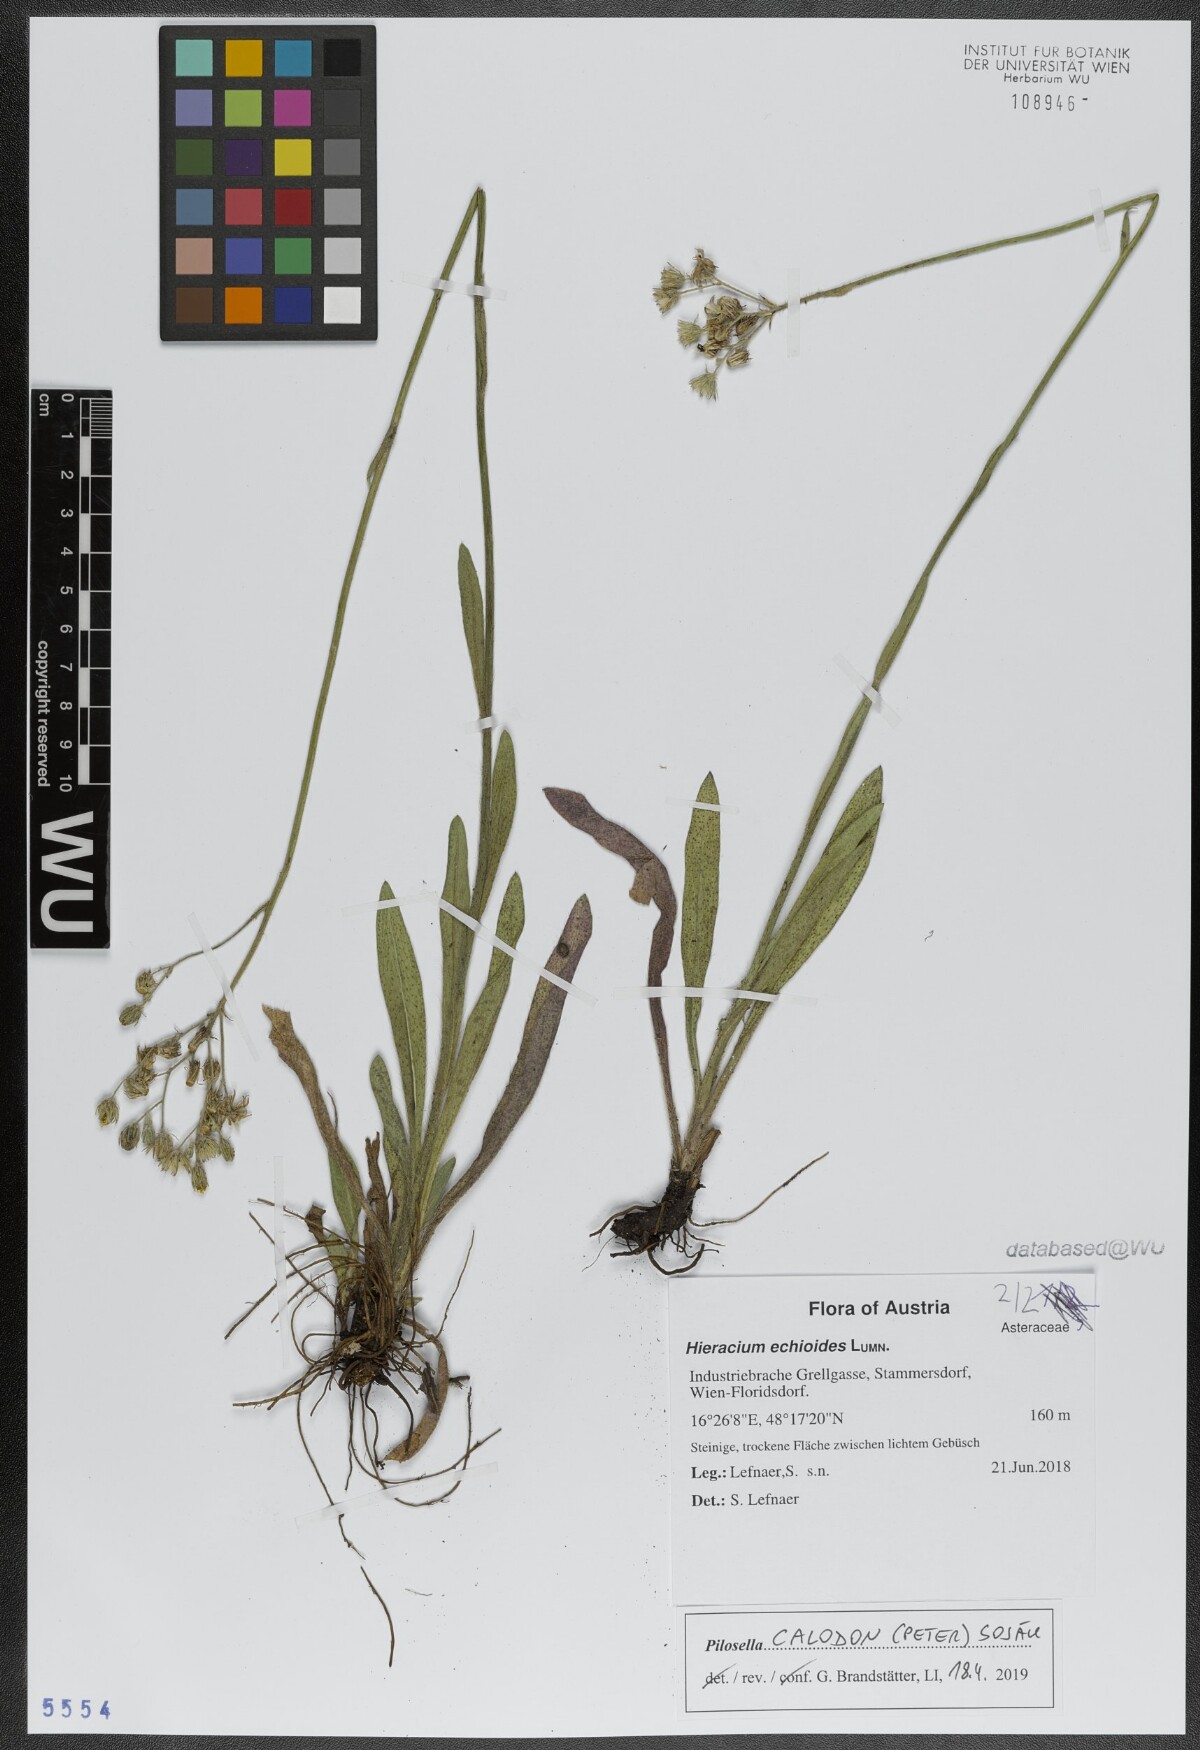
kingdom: Plantae
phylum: Tracheophyta
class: Magnoliopsida
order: Asterales
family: Asteraceae
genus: Pilosella
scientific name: Pilosella calodon
